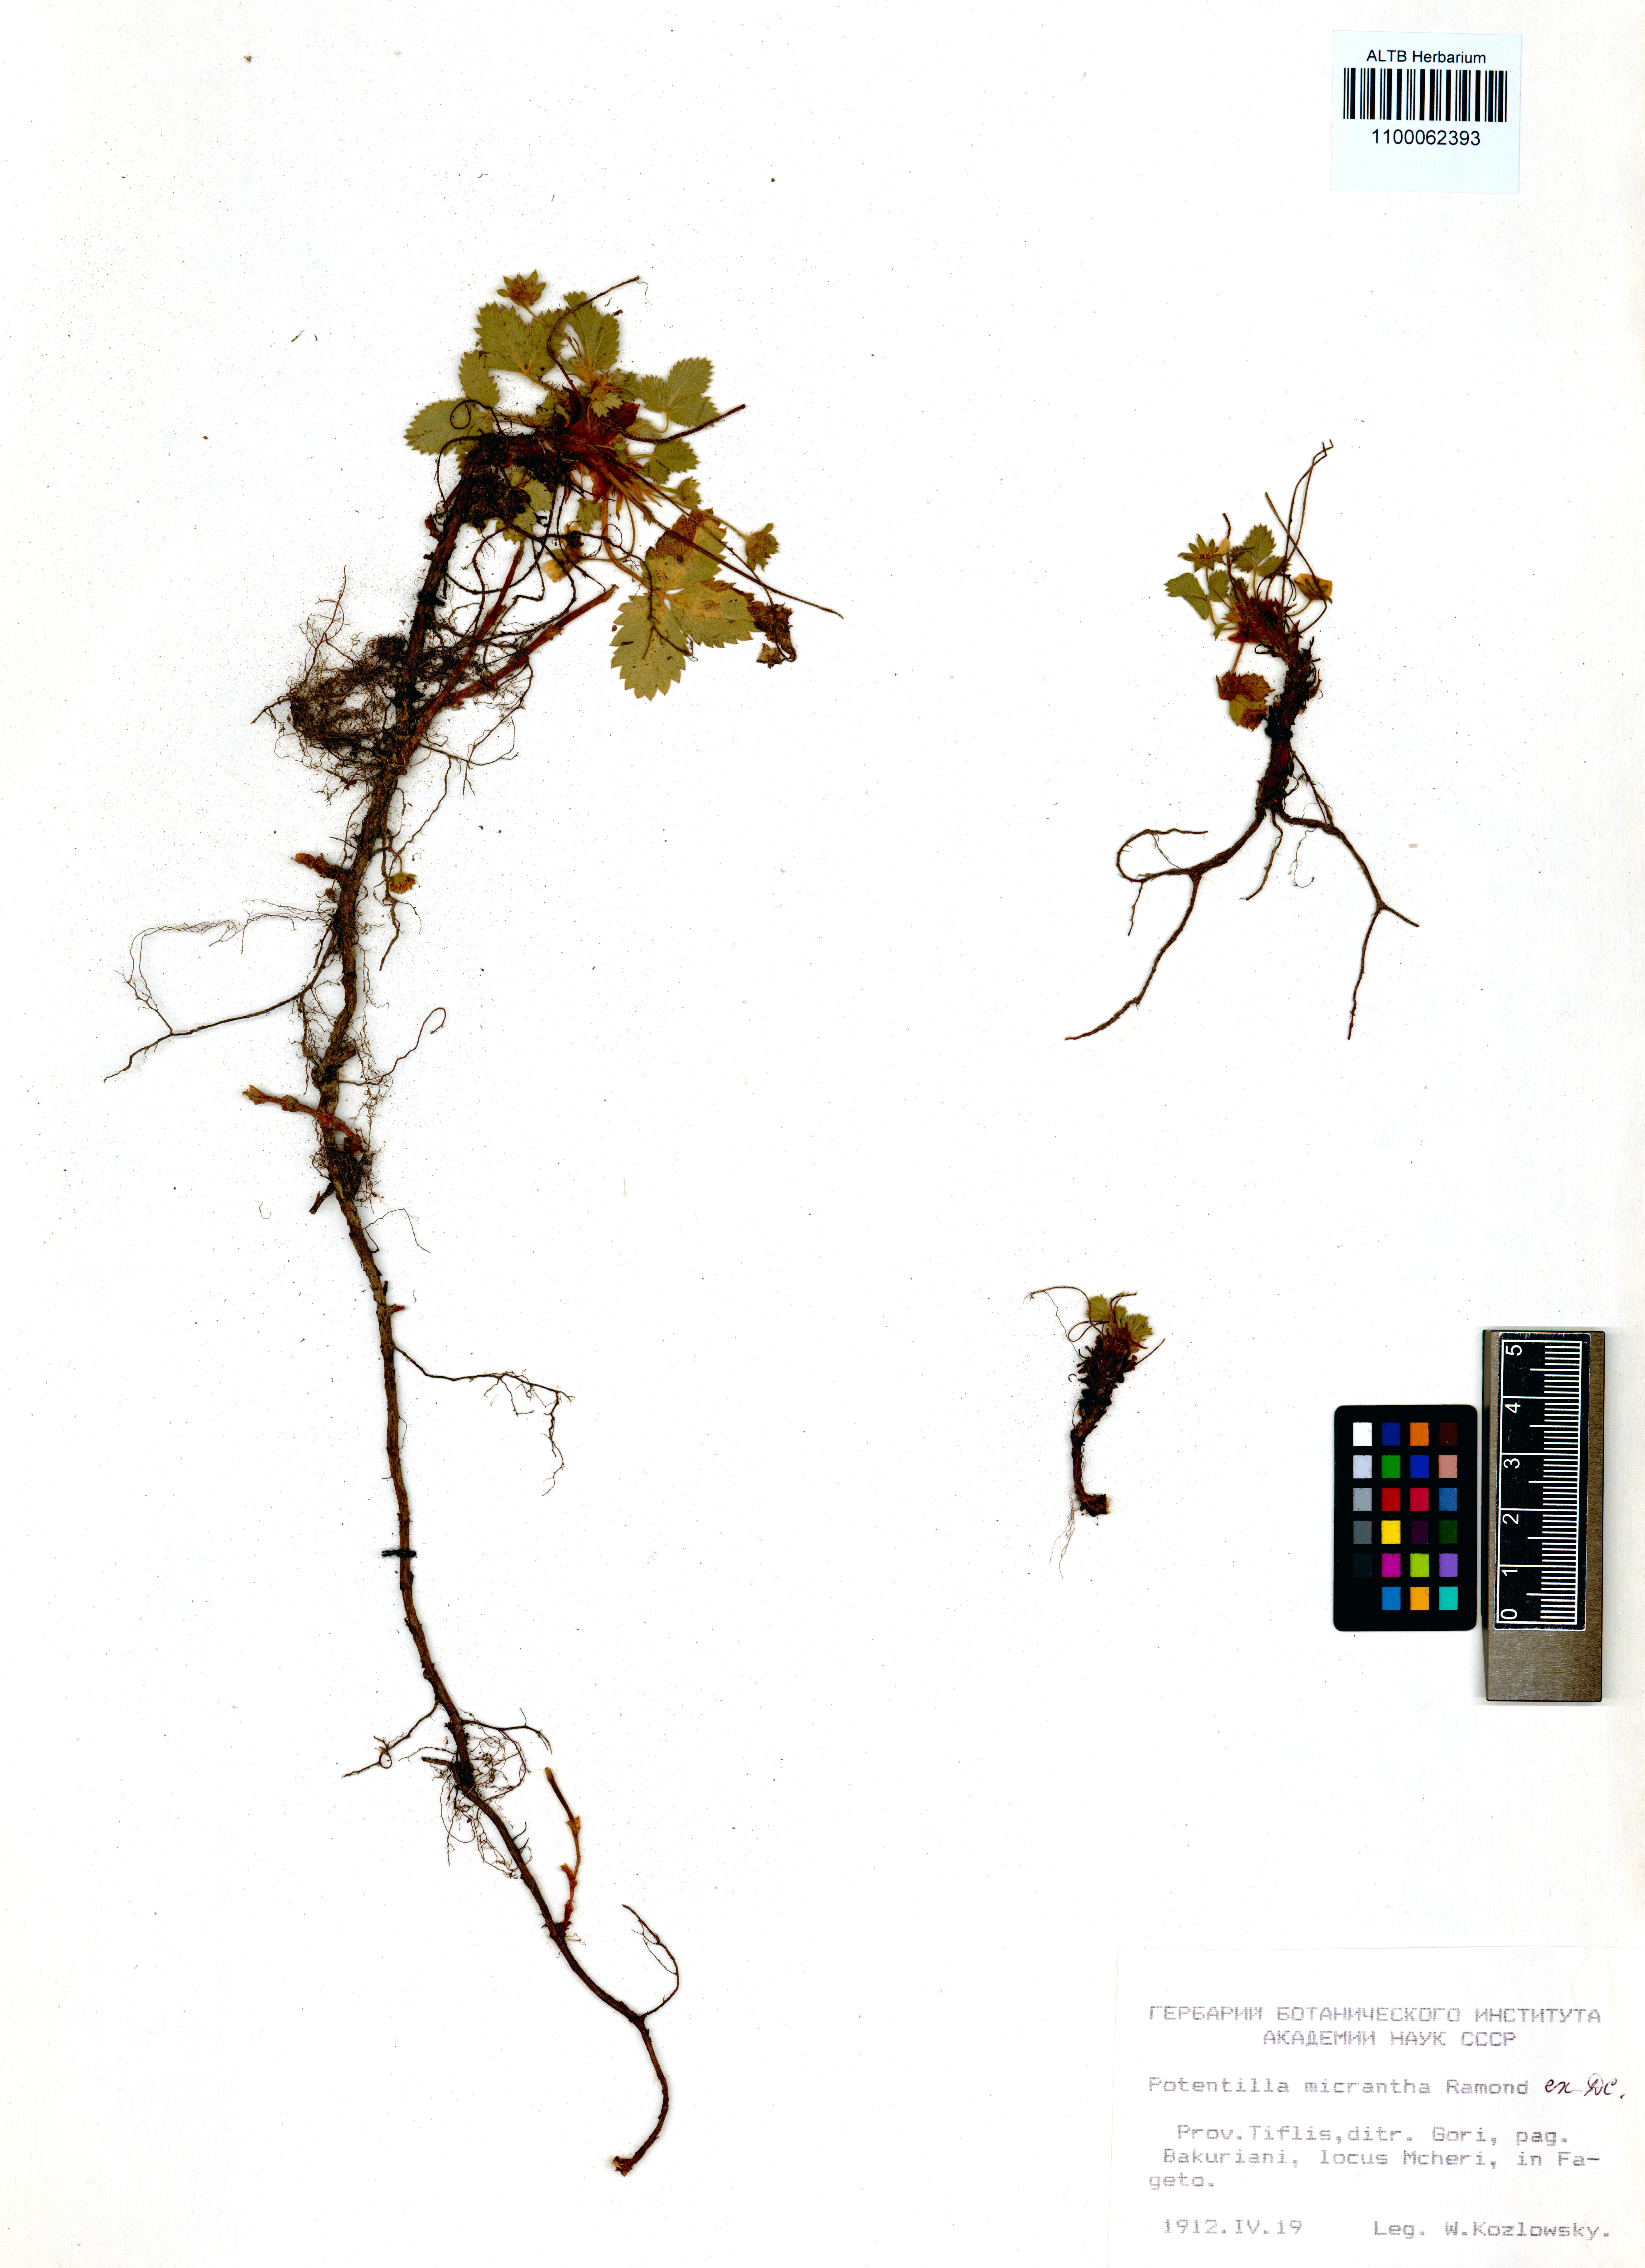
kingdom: Plantae
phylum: Tracheophyta
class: Magnoliopsida
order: Rosales
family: Rosaceae
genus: Potentilla
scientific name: Potentilla micrantha
